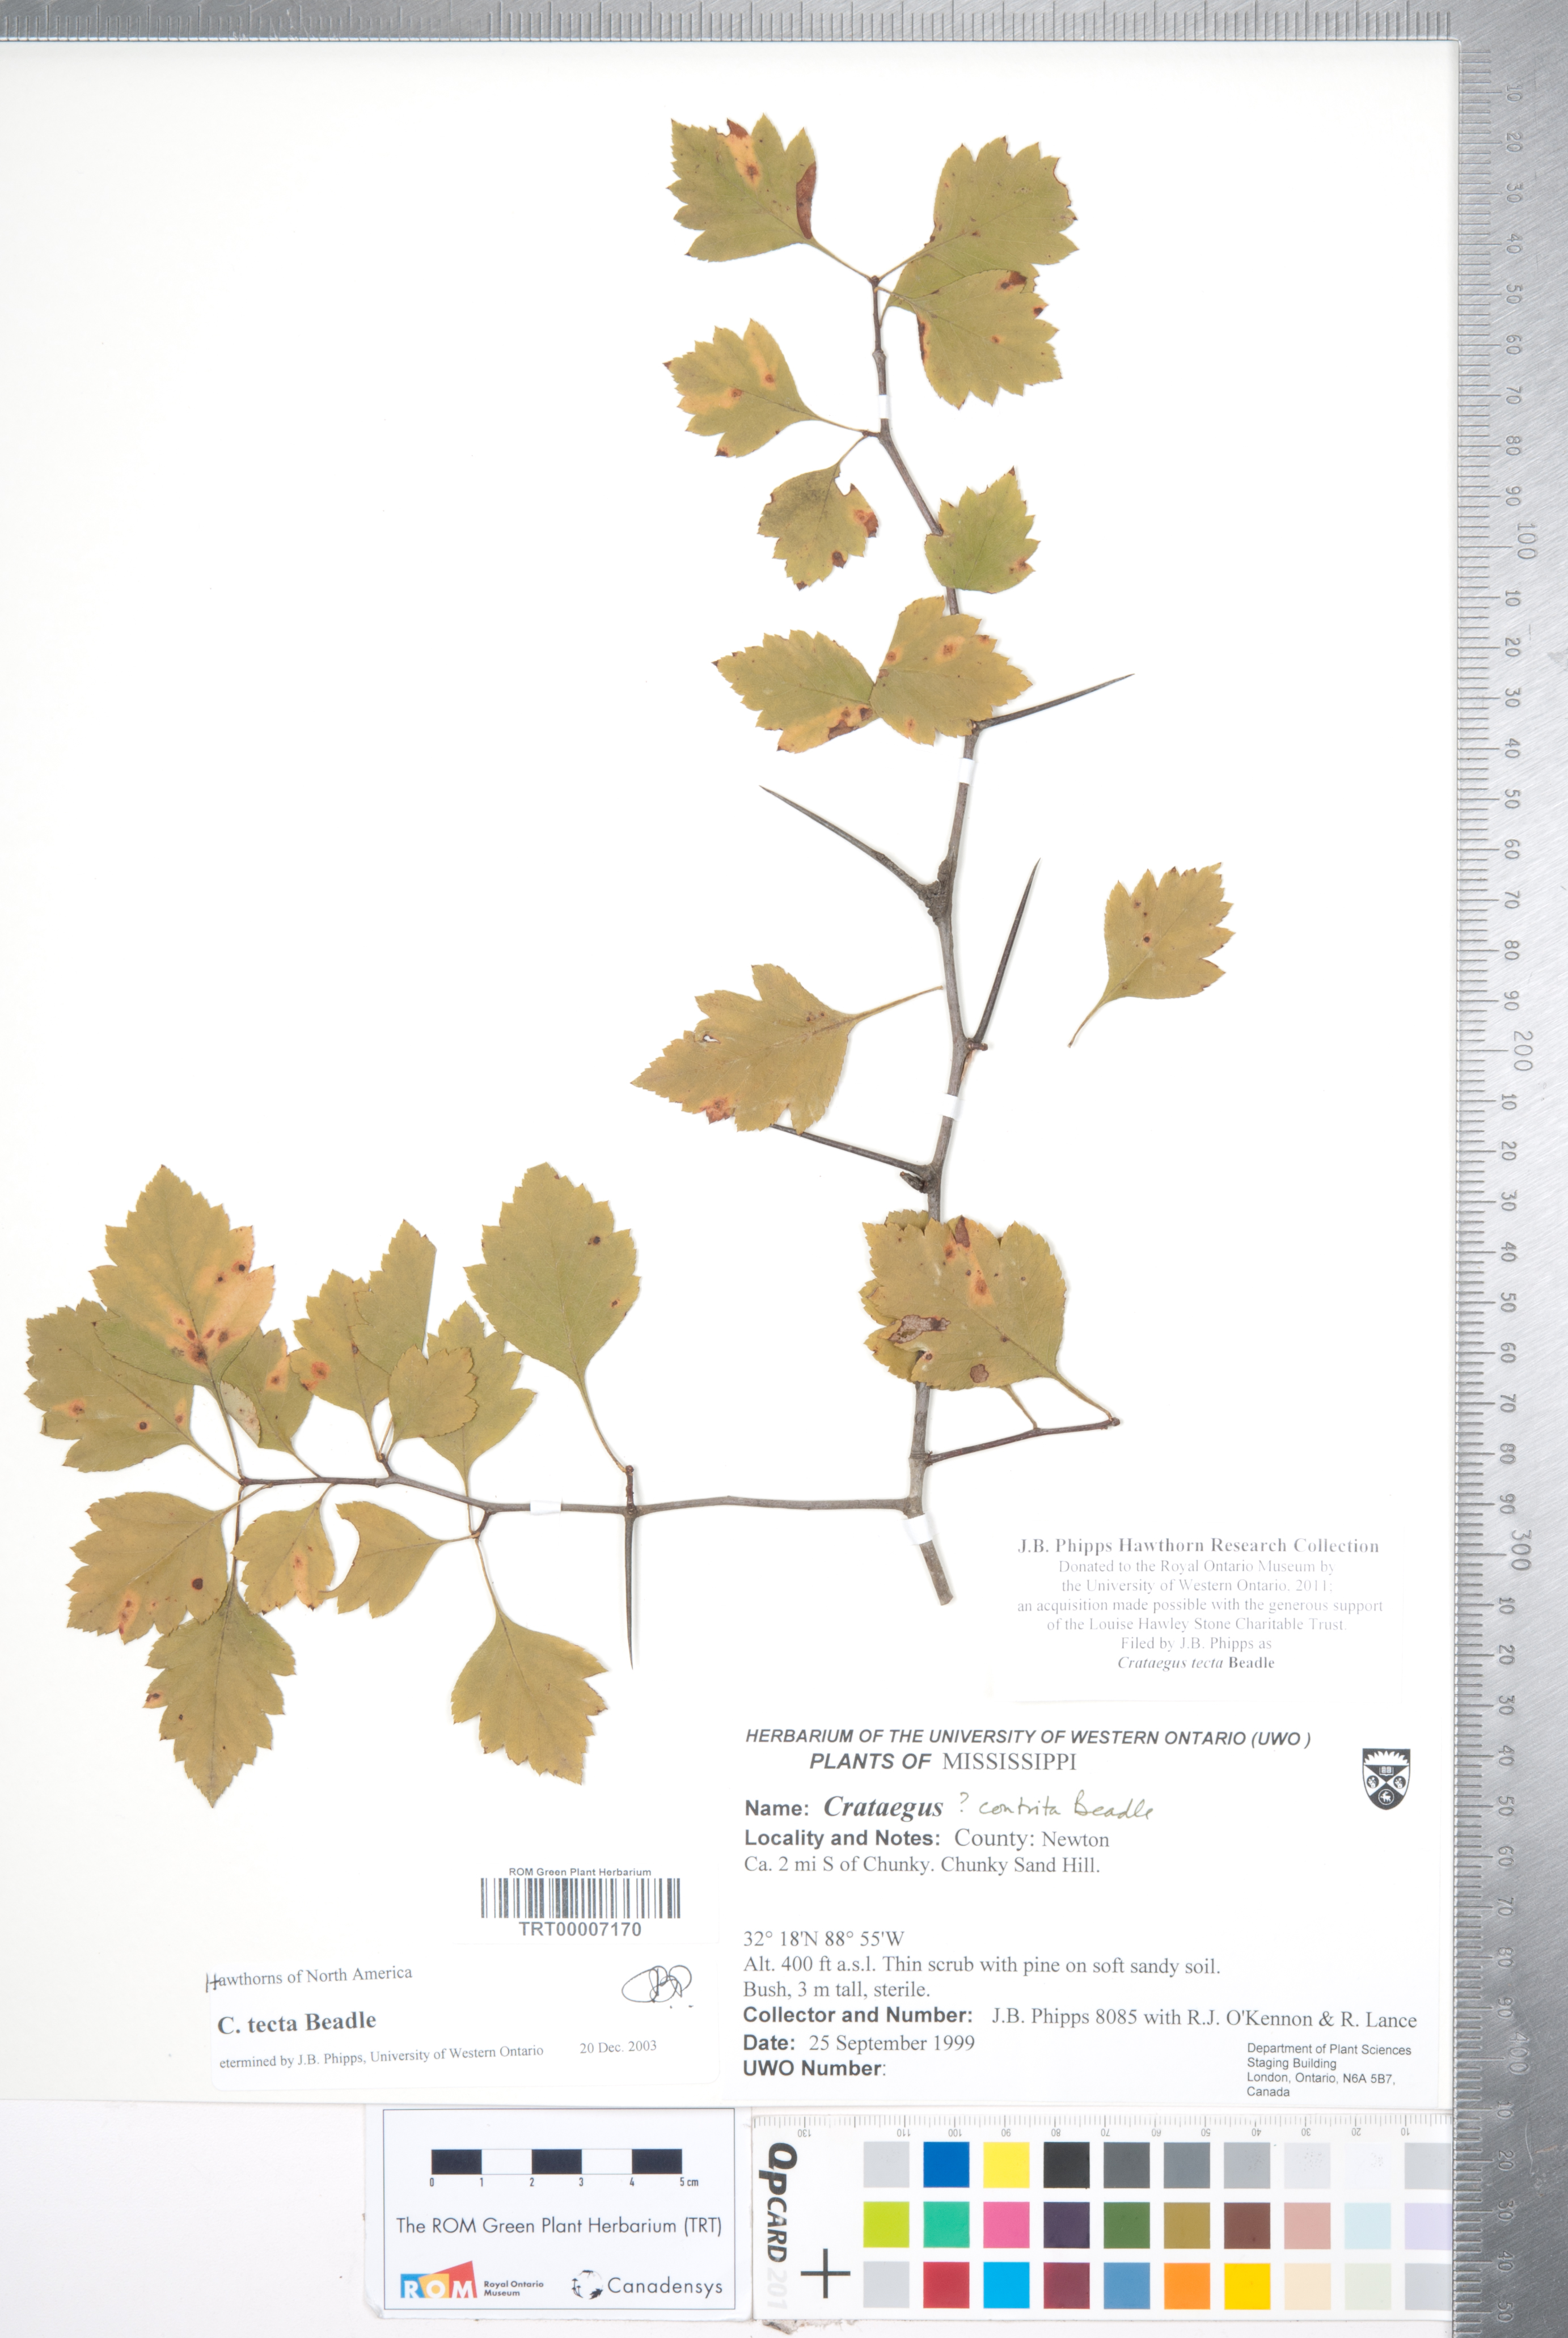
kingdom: Plantae
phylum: Tracheophyta
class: Magnoliopsida
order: Rosales
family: Rosaceae
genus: Crataegus
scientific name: Crataegus pulcherrima
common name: Beautiful hawthorn
